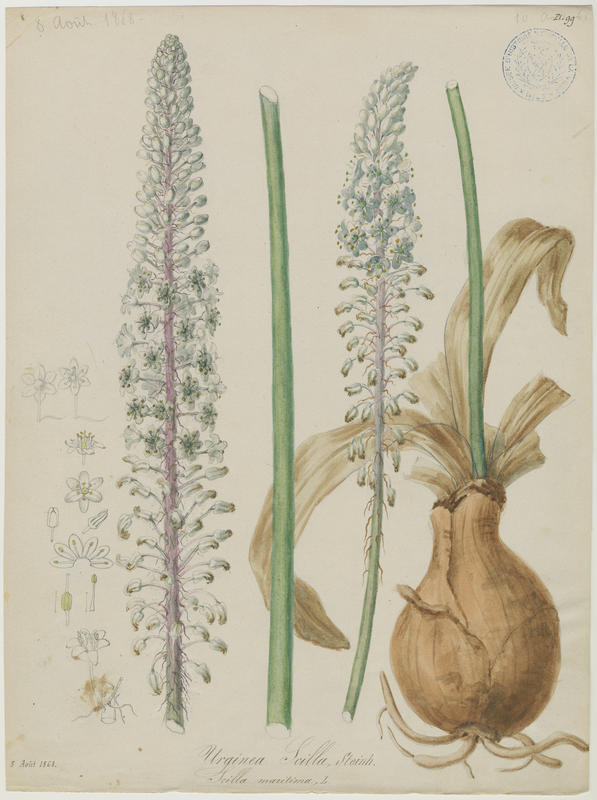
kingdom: Plantae
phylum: Tracheophyta
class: Liliopsida
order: Asparagales
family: Asparagaceae
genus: Drimia
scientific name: Drimia maritima
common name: Maritime squill
